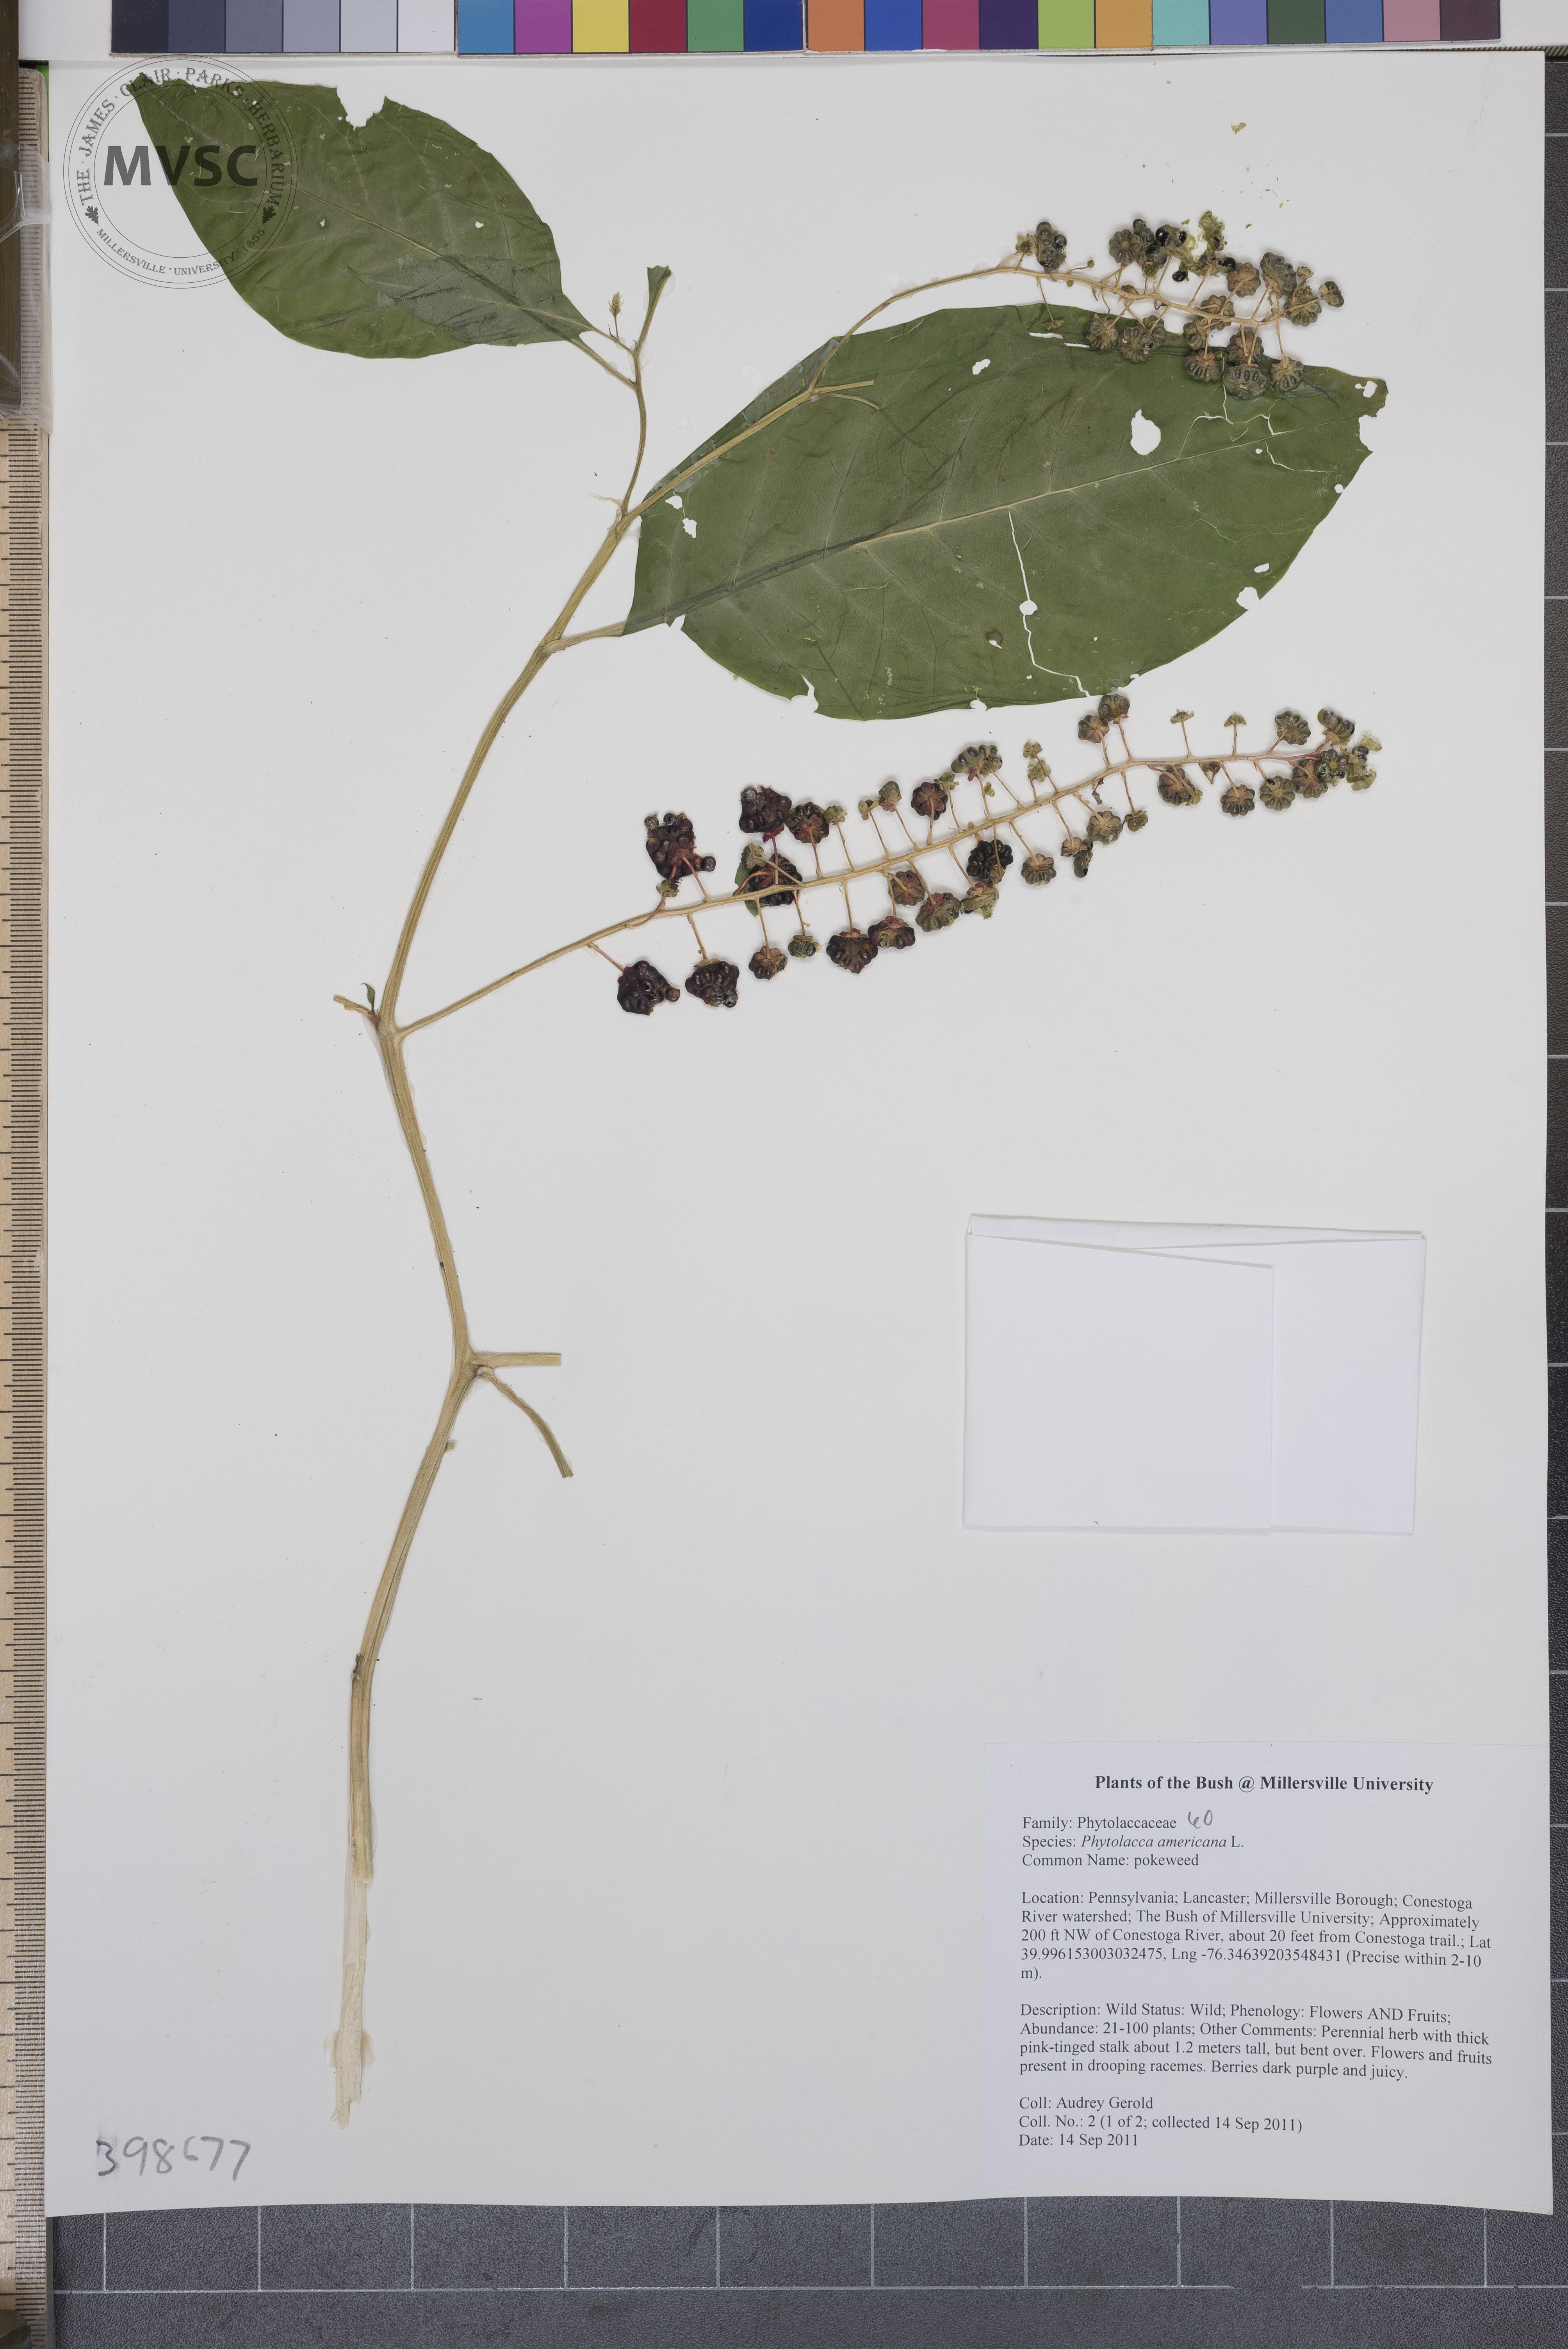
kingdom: Plantae
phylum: Tracheophyta
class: Magnoliopsida
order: Caryophyllales
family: Phytolaccaceae
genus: Phytolacca
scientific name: Phytolacca americana
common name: Pokeweed
